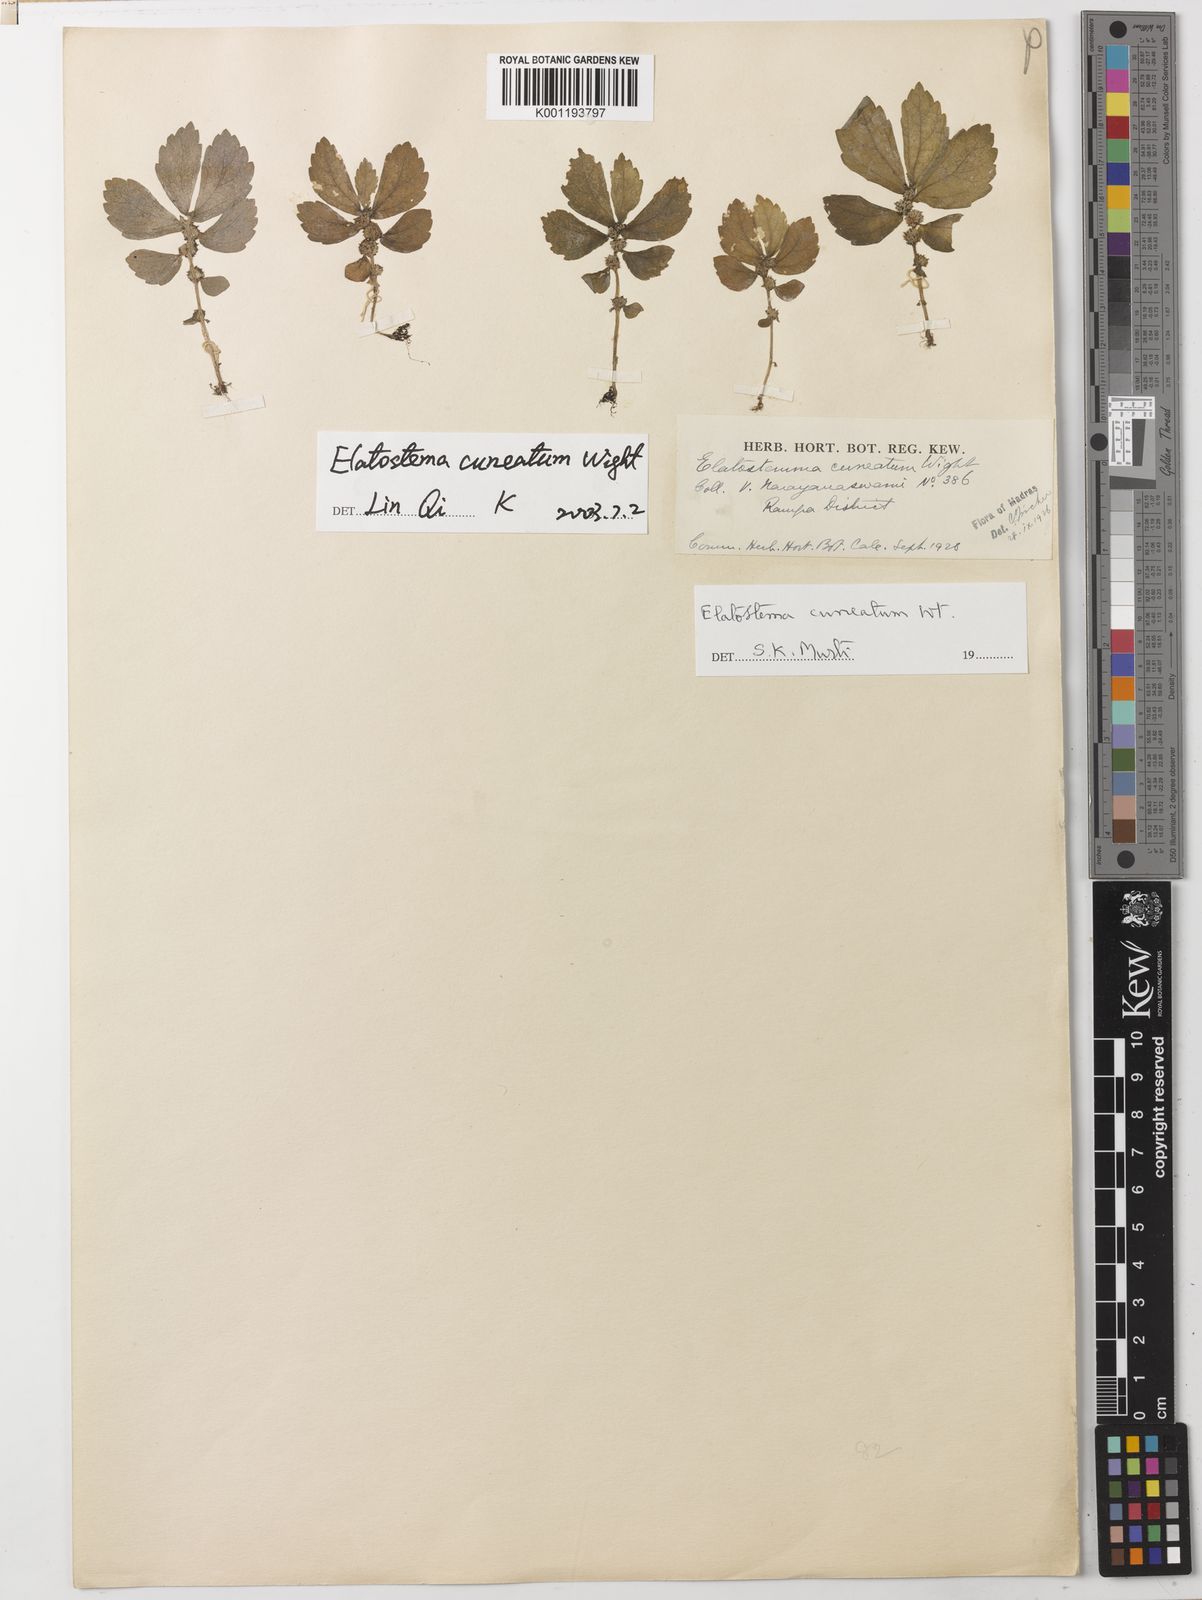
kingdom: Plantae
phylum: Tracheophyta
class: Magnoliopsida
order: Rosales
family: Urticaceae
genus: Elatostema
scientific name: Elatostema cuneatum
